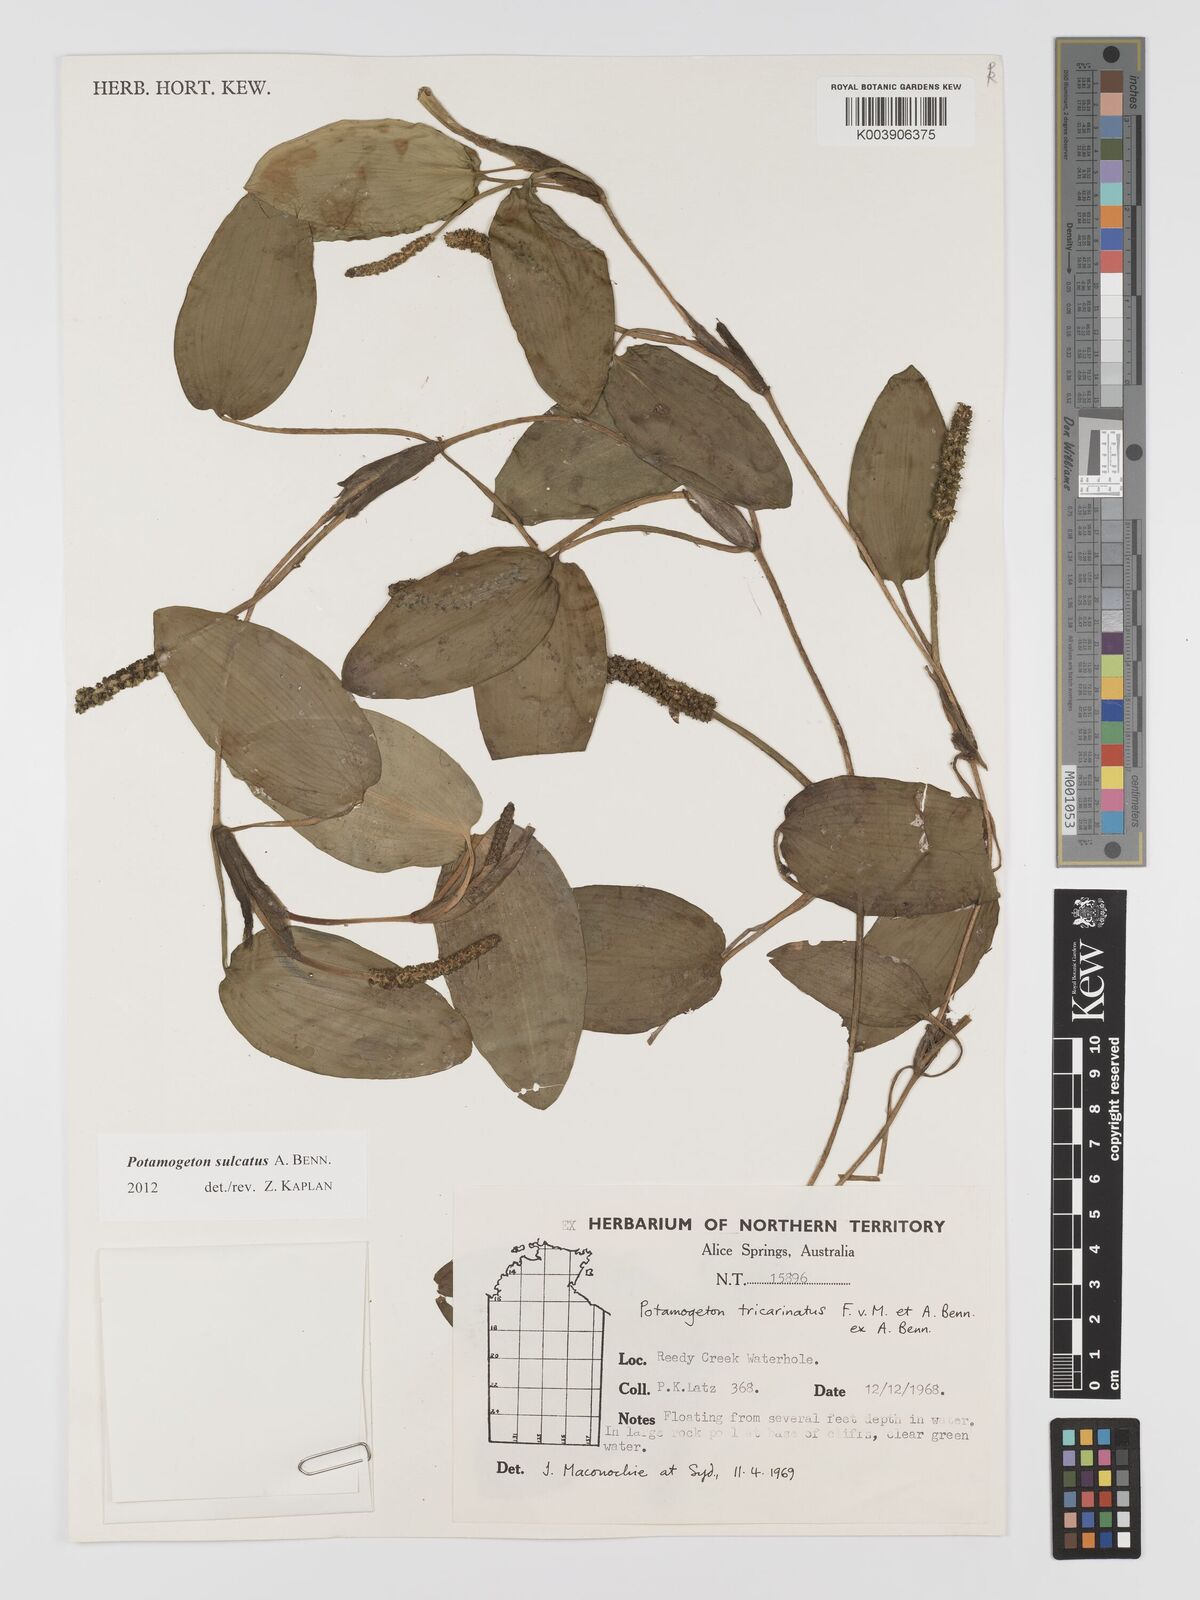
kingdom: Plantae
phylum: Tracheophyta
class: Liliopsida
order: Alismatales
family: Potamogetonaceae
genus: Potamogeton
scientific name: Potamogeton tricarinatus
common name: Pondweed
